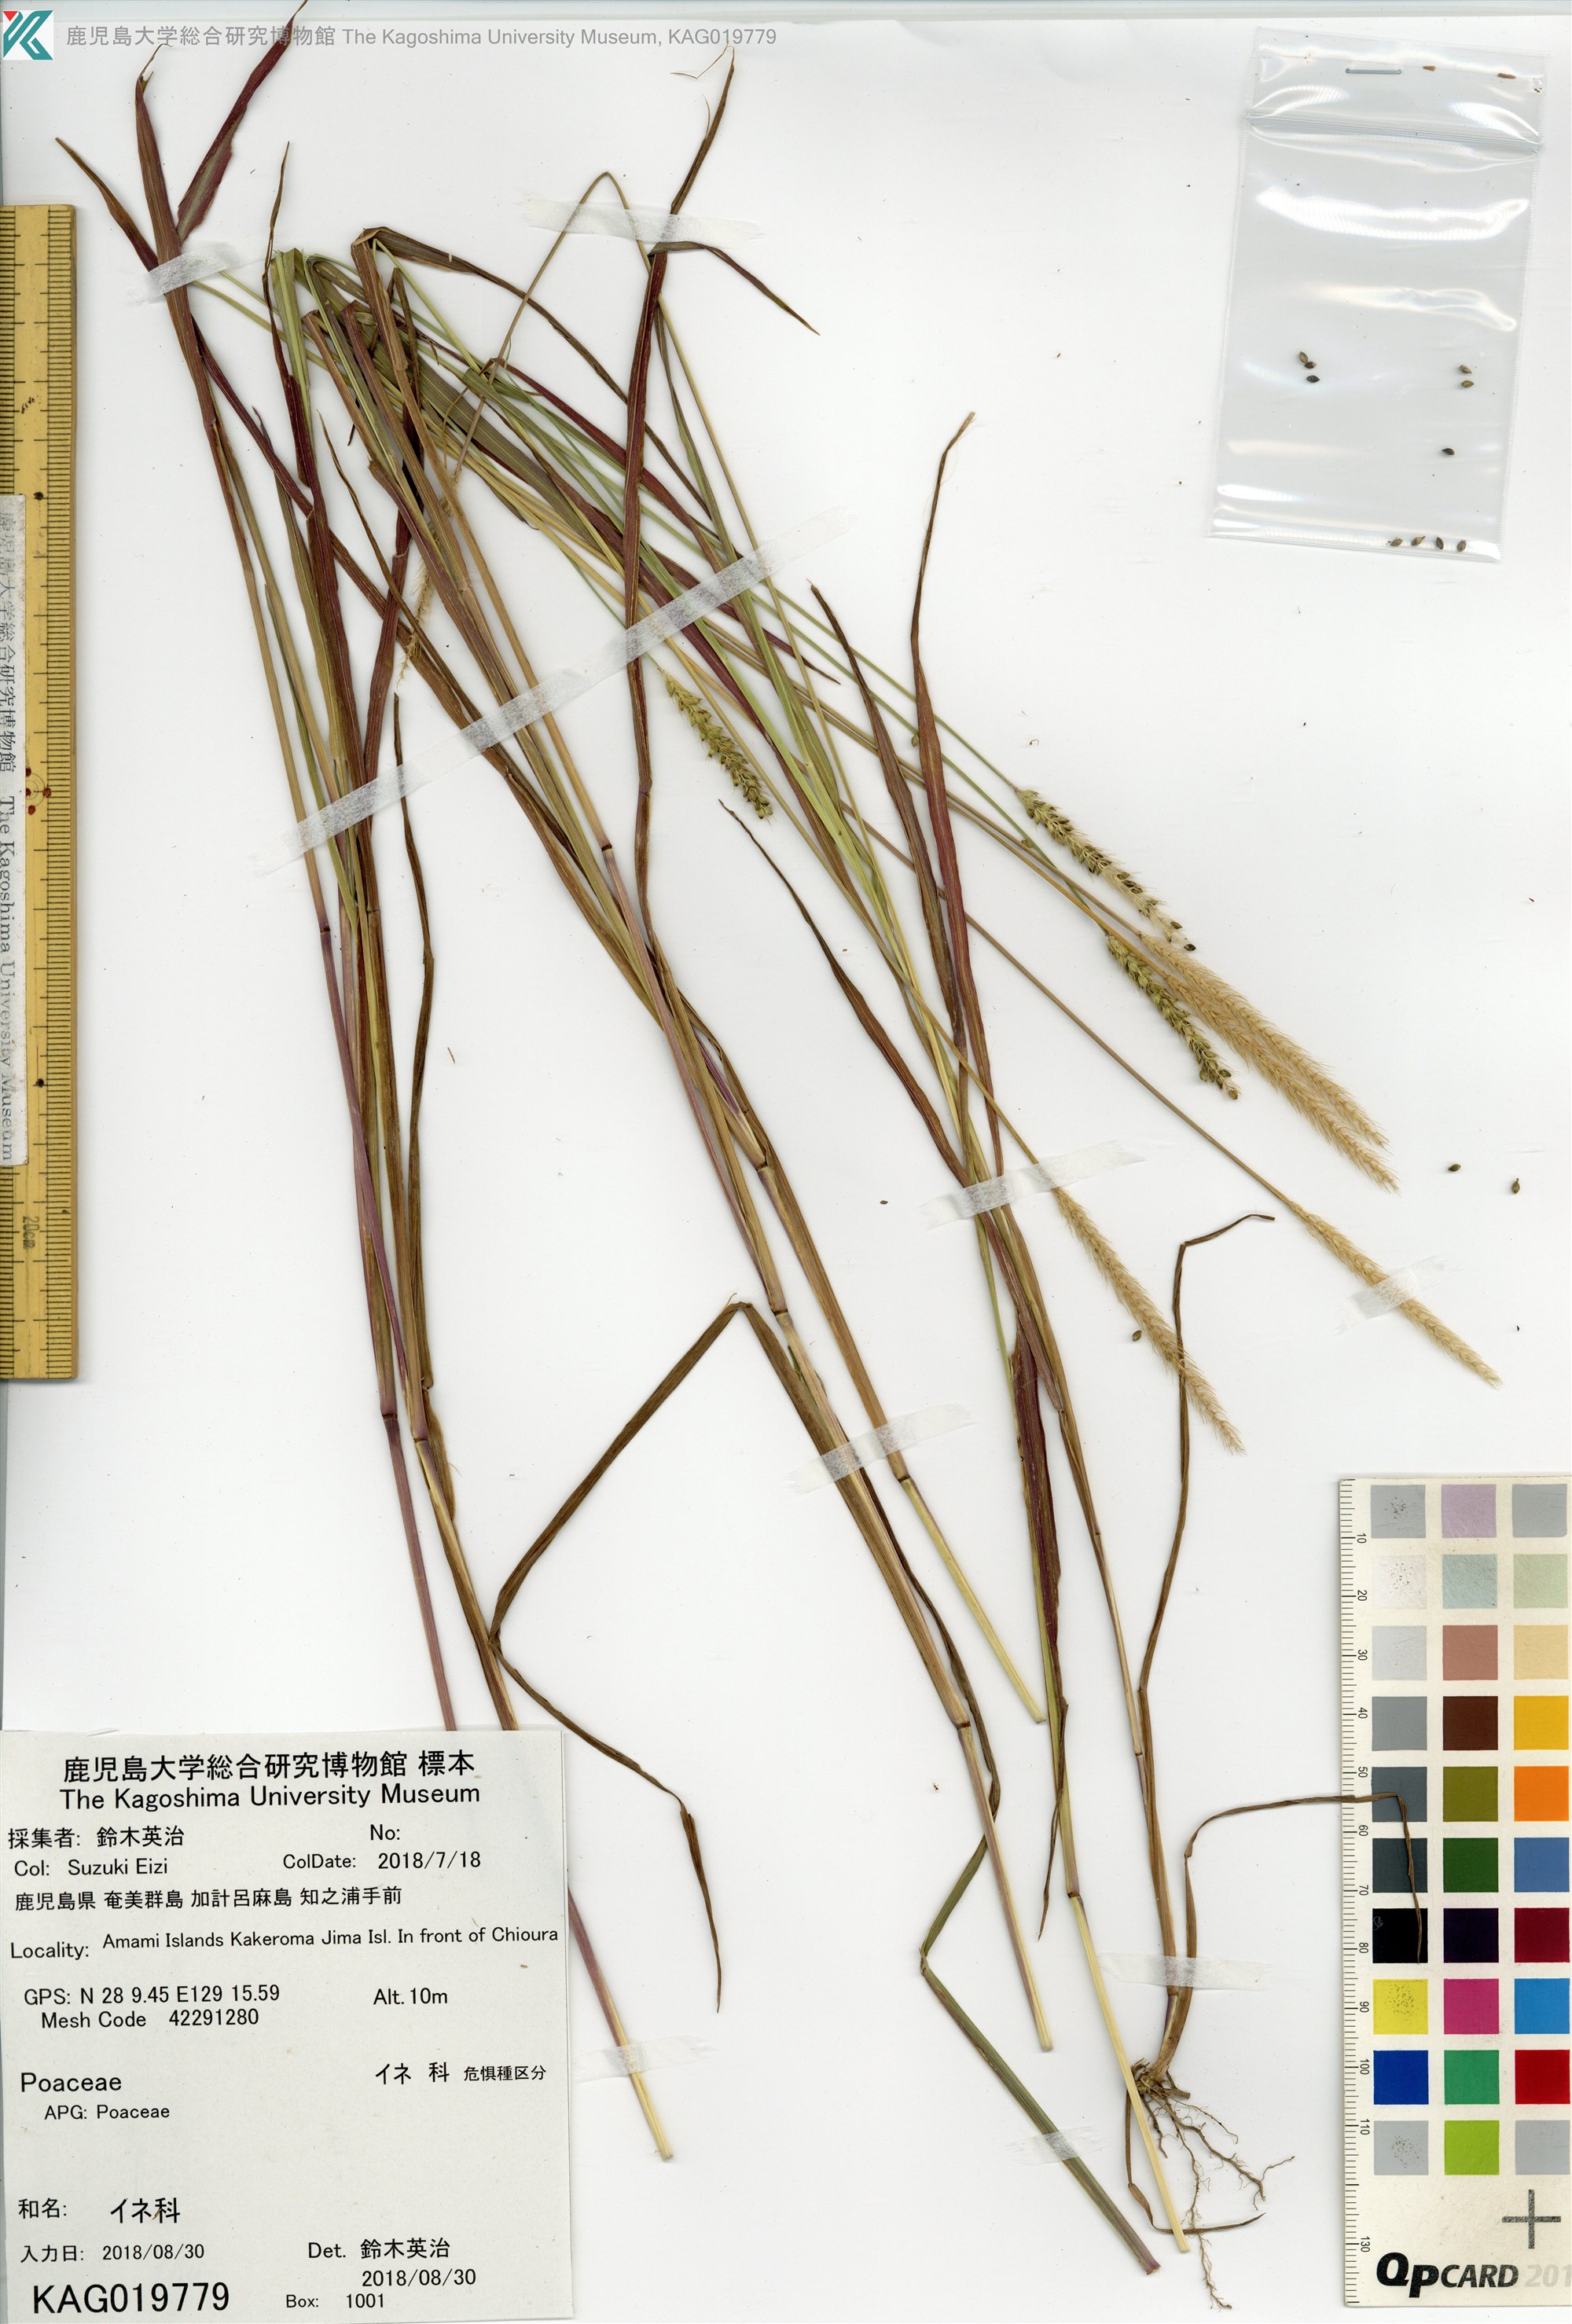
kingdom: Plantae
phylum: Tracheophyta
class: Liliopsida
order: Poales
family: Poaceae
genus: Setaria
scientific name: Setaria
